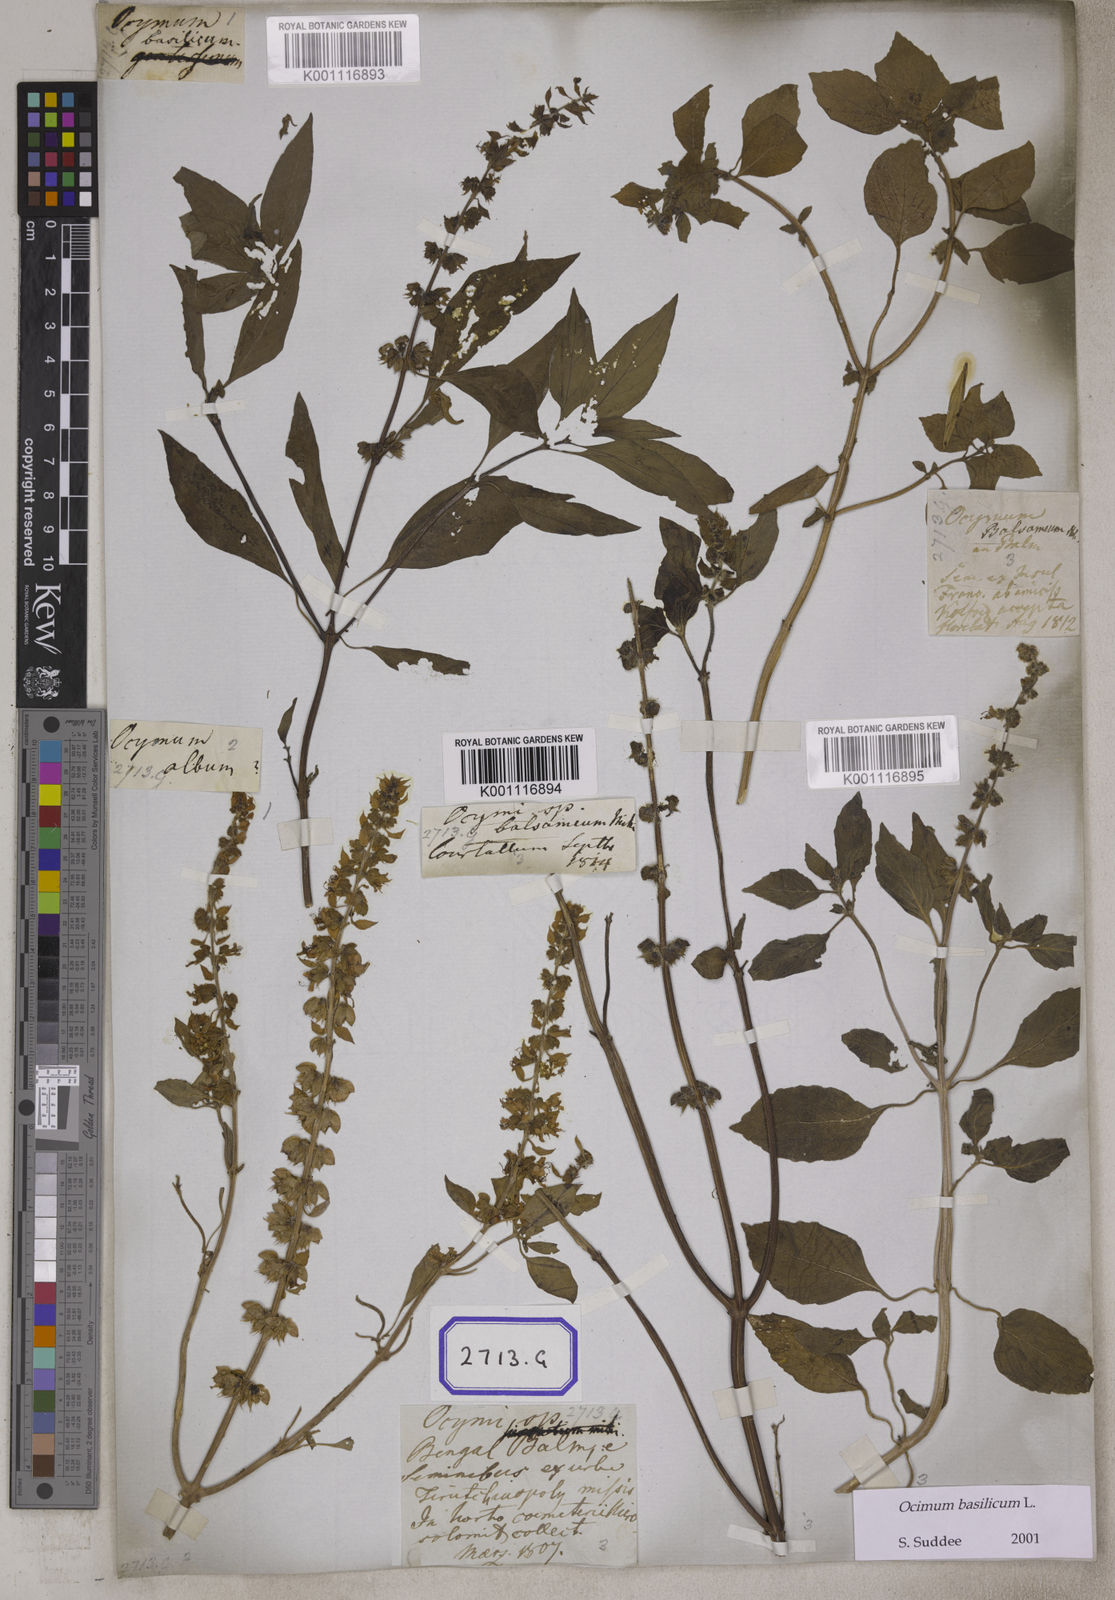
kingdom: Plantae
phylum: Tracheophyta
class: Magnoliopsida
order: Lamiales
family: Lamiaceae
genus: Ocimum
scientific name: Ocimum
